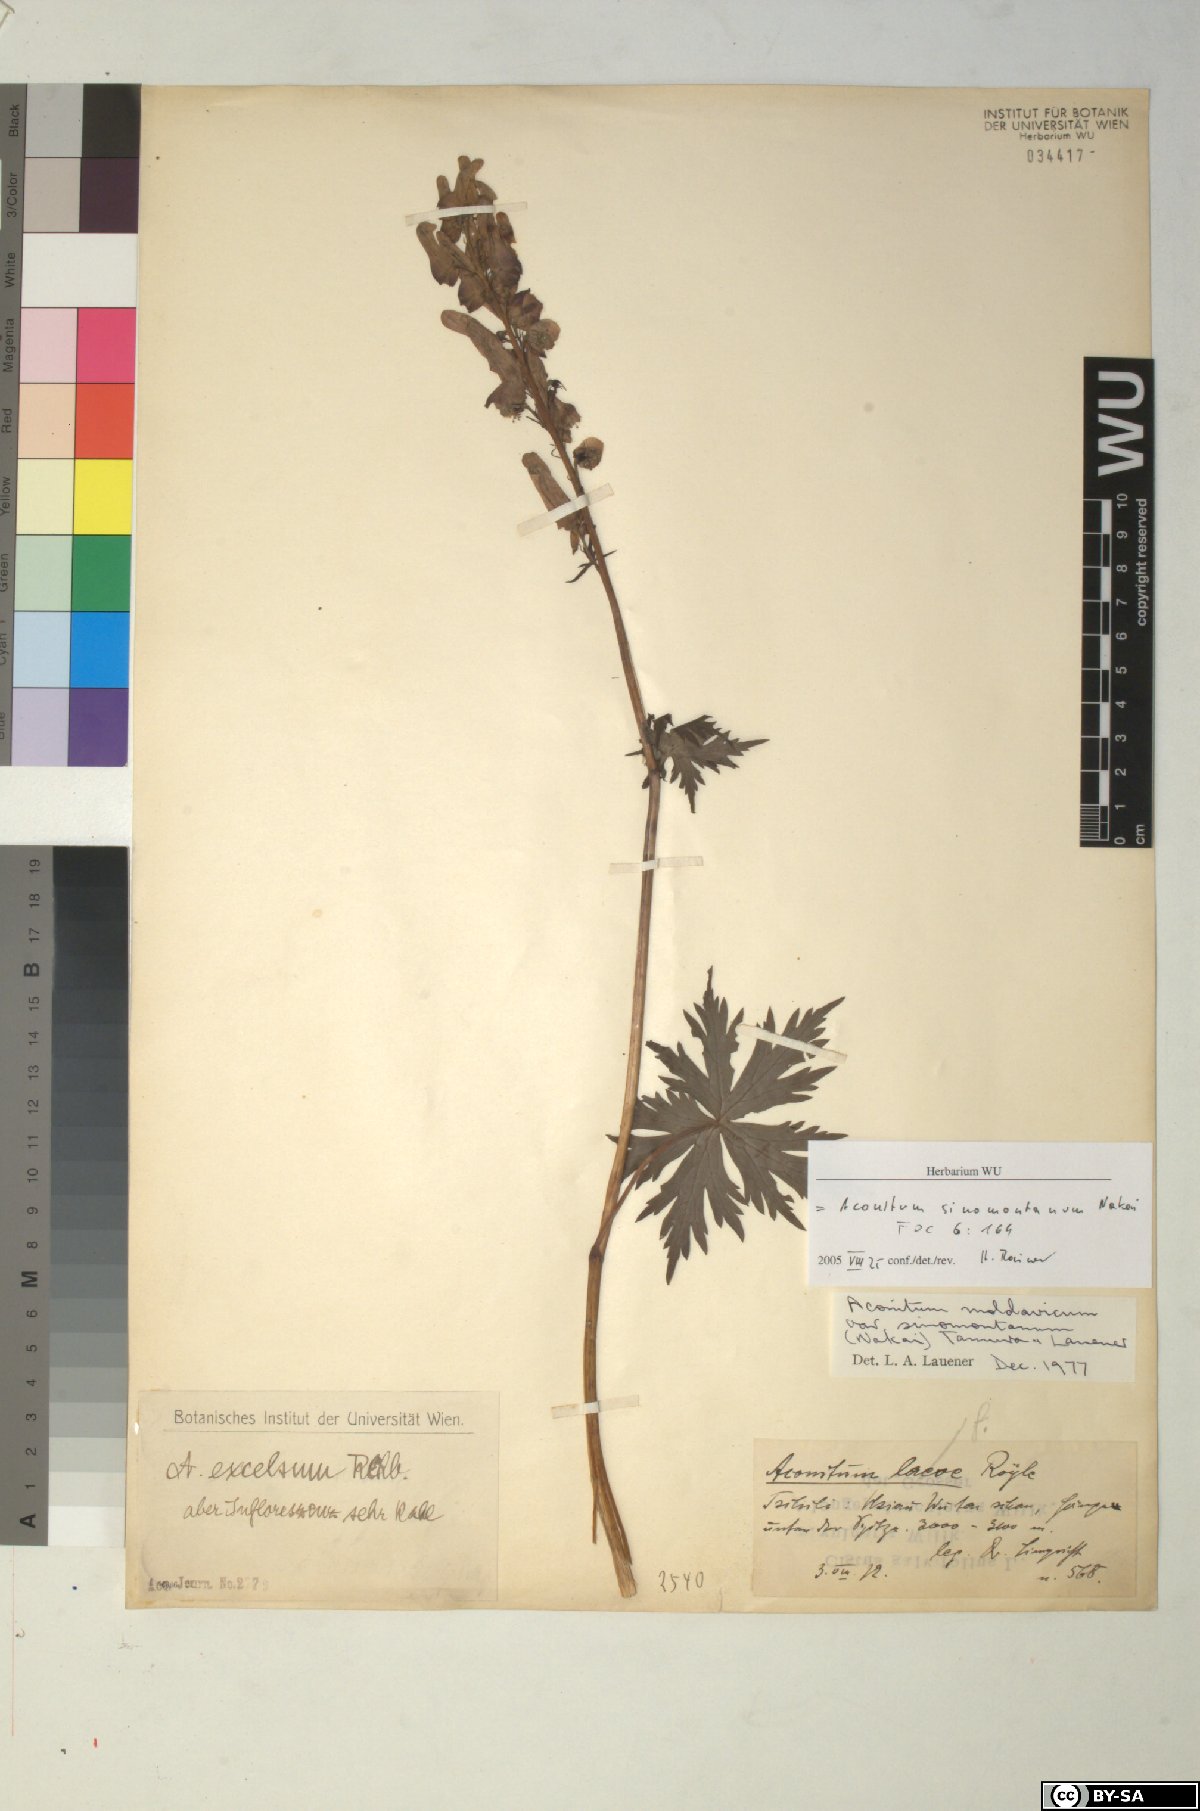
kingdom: Plantae
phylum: Tracheophyta
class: Magnoliopsida
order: Ranunculales
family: Ranunculaceae
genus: Aconitum
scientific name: Aconitum sinomontanum
